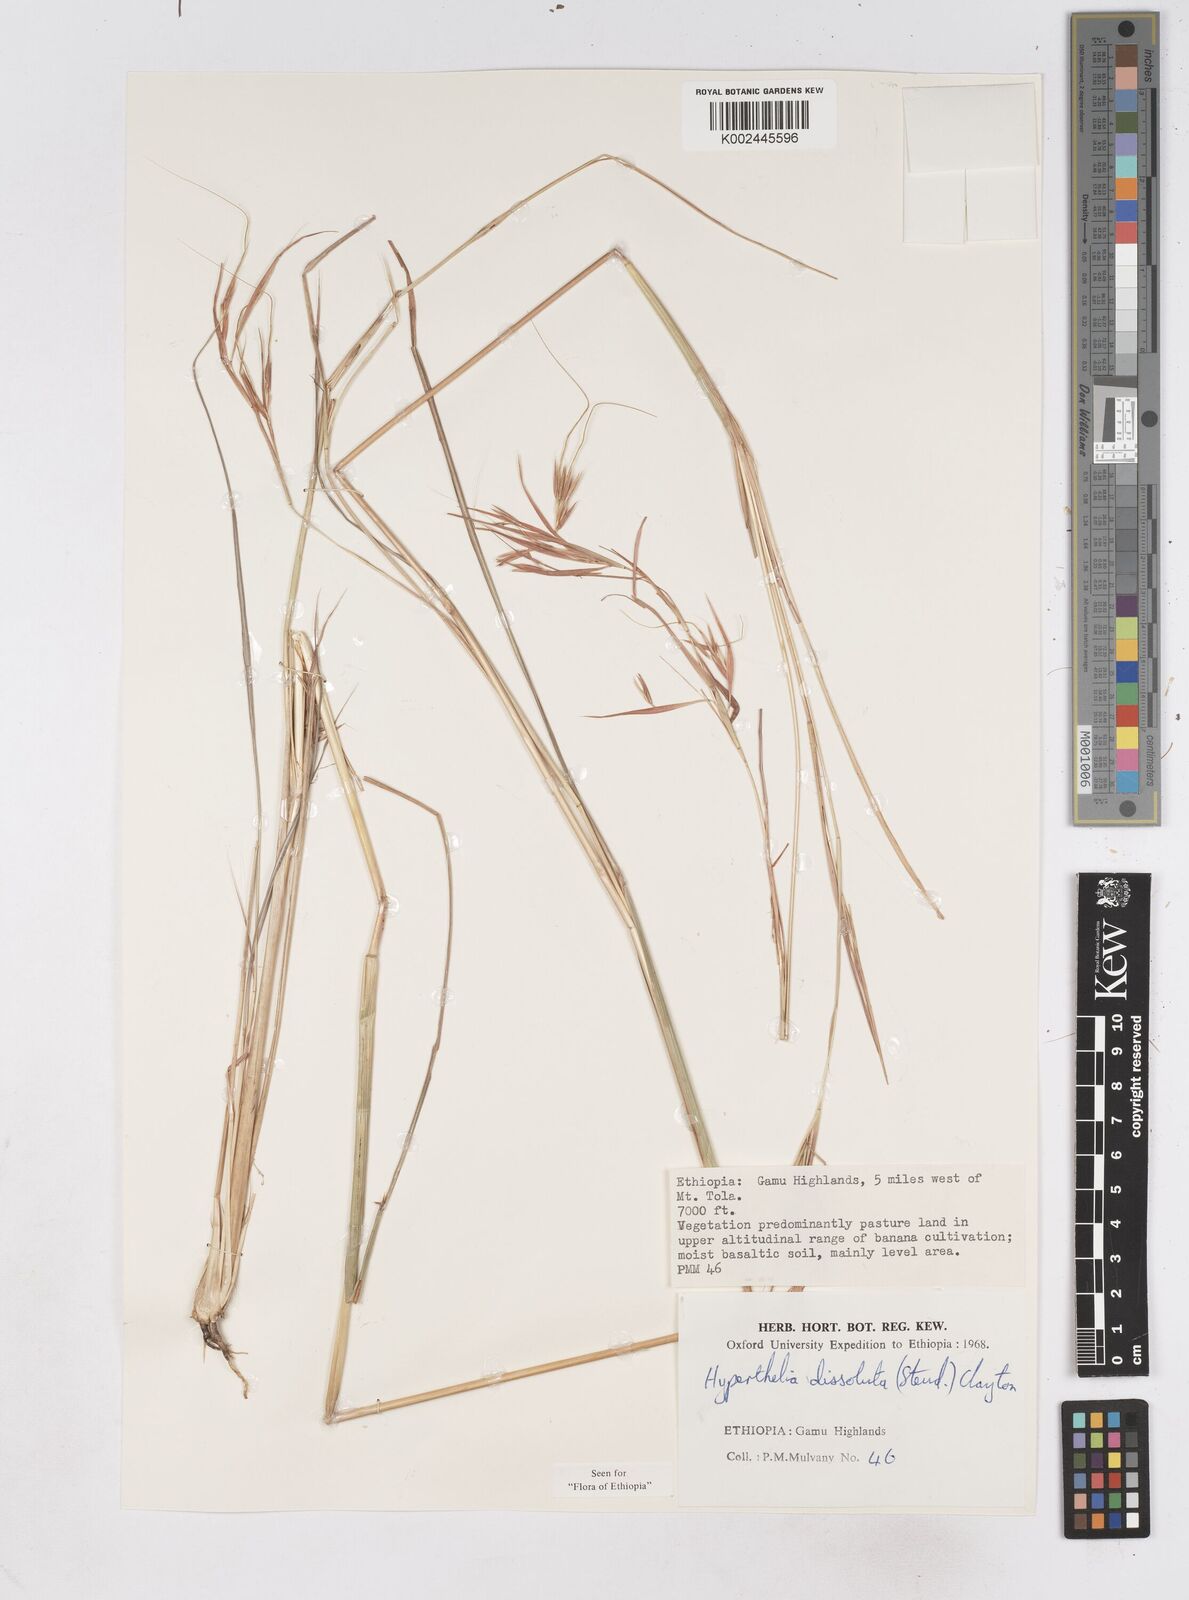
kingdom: Plantae
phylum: Tracheophyta
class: Liliopsida
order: Poales
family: Poaceae
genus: Hyperthelia
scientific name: Hyperthelia dissoluta
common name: Yellow thatching grass
